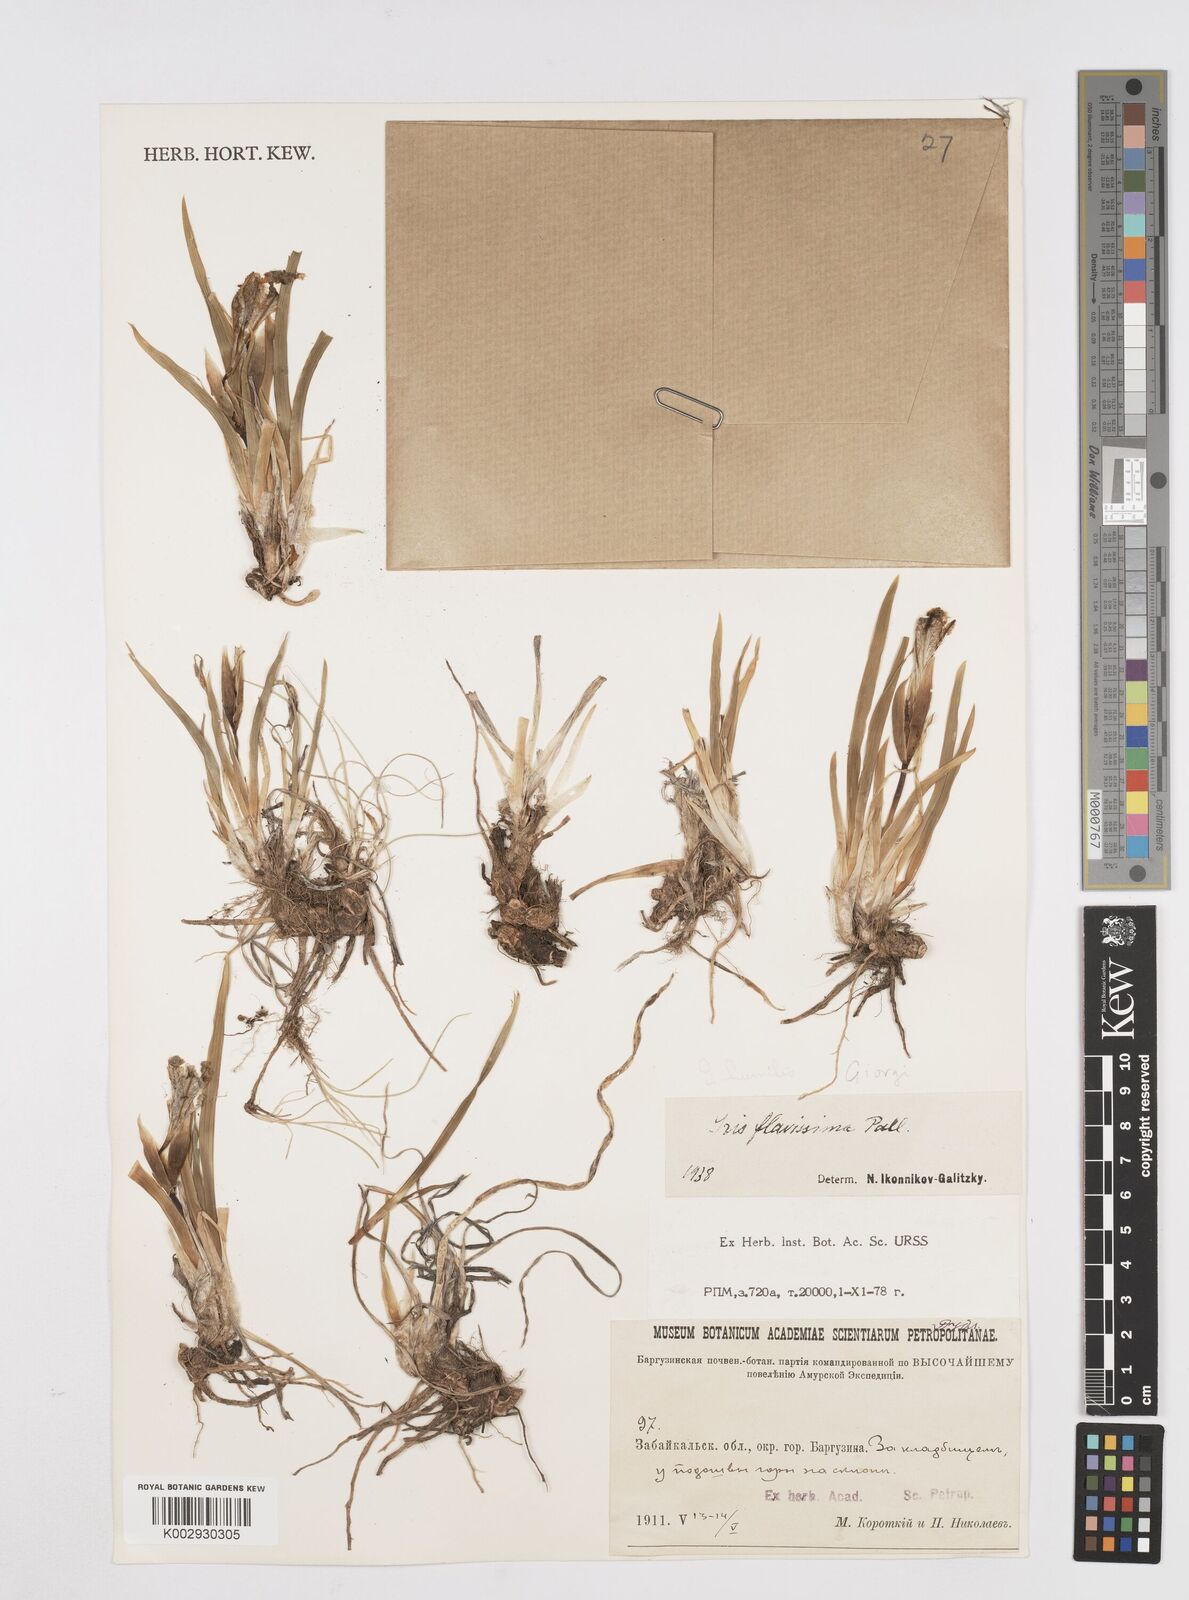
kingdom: Plantae
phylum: Tracheophyta
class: Liliopsida
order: Asparagales
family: Iridaceae
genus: Iris
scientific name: Iris humilis
